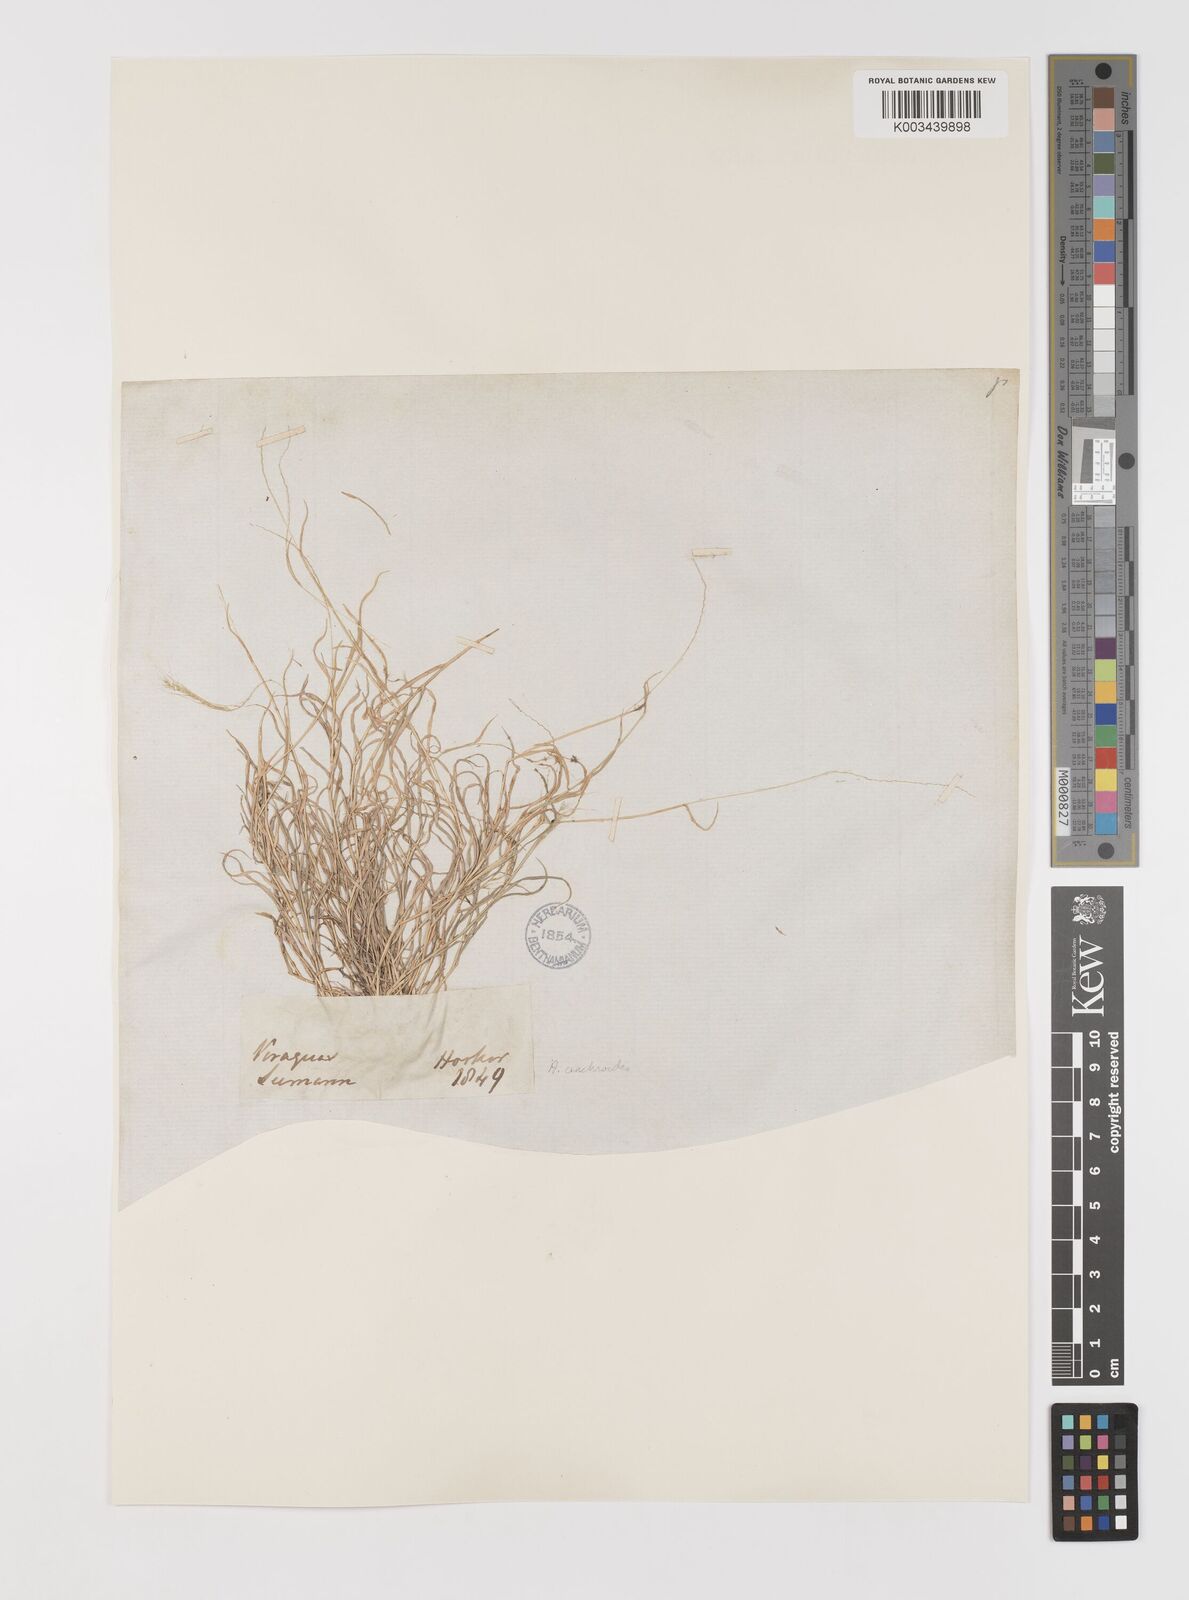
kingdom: Plantae
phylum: Tracheophyta
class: Liliopsida
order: Poales
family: Poaceae
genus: Muhlenbergia
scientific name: Muhlenbergia cenchroides
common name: Relaxgrass
